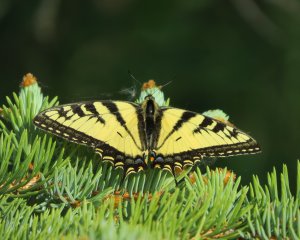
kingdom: Animalia
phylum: Arthropoda
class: Insecta
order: Lepidoptera
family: Papilionidae
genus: Pterourus
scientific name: Pterourus canadensis
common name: Canadian Tiger Swallowtail
